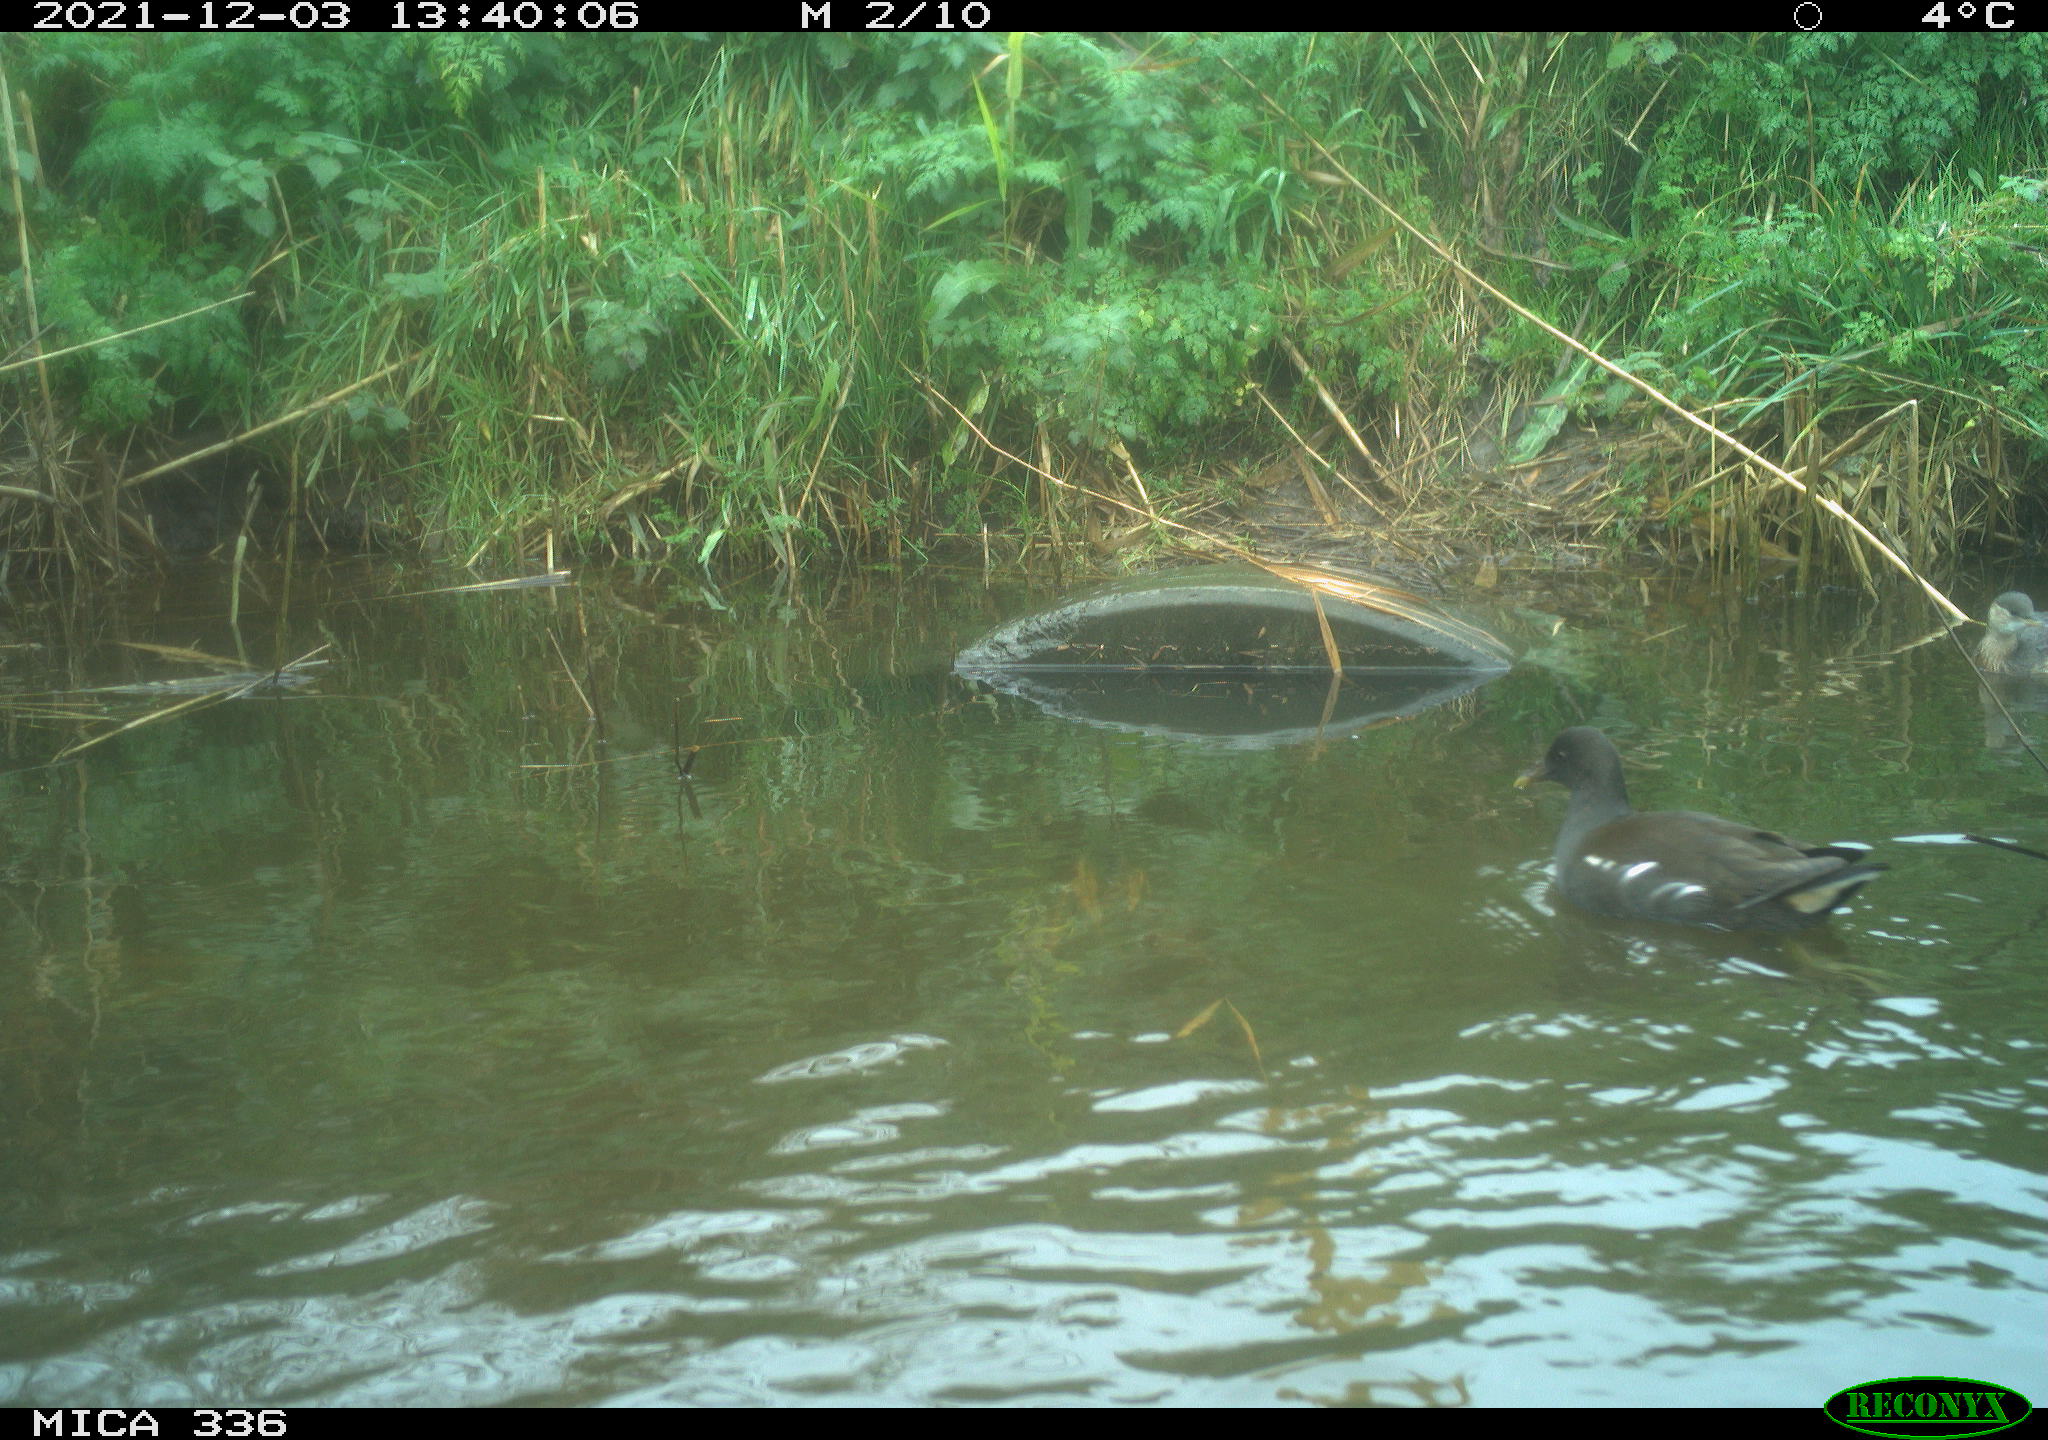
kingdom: Animalia
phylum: Chordata
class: Aves
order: Podicipediformes
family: Podicipedidae
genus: Tachybaptus
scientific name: Tachybaptus ruficollis
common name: Little grebe
